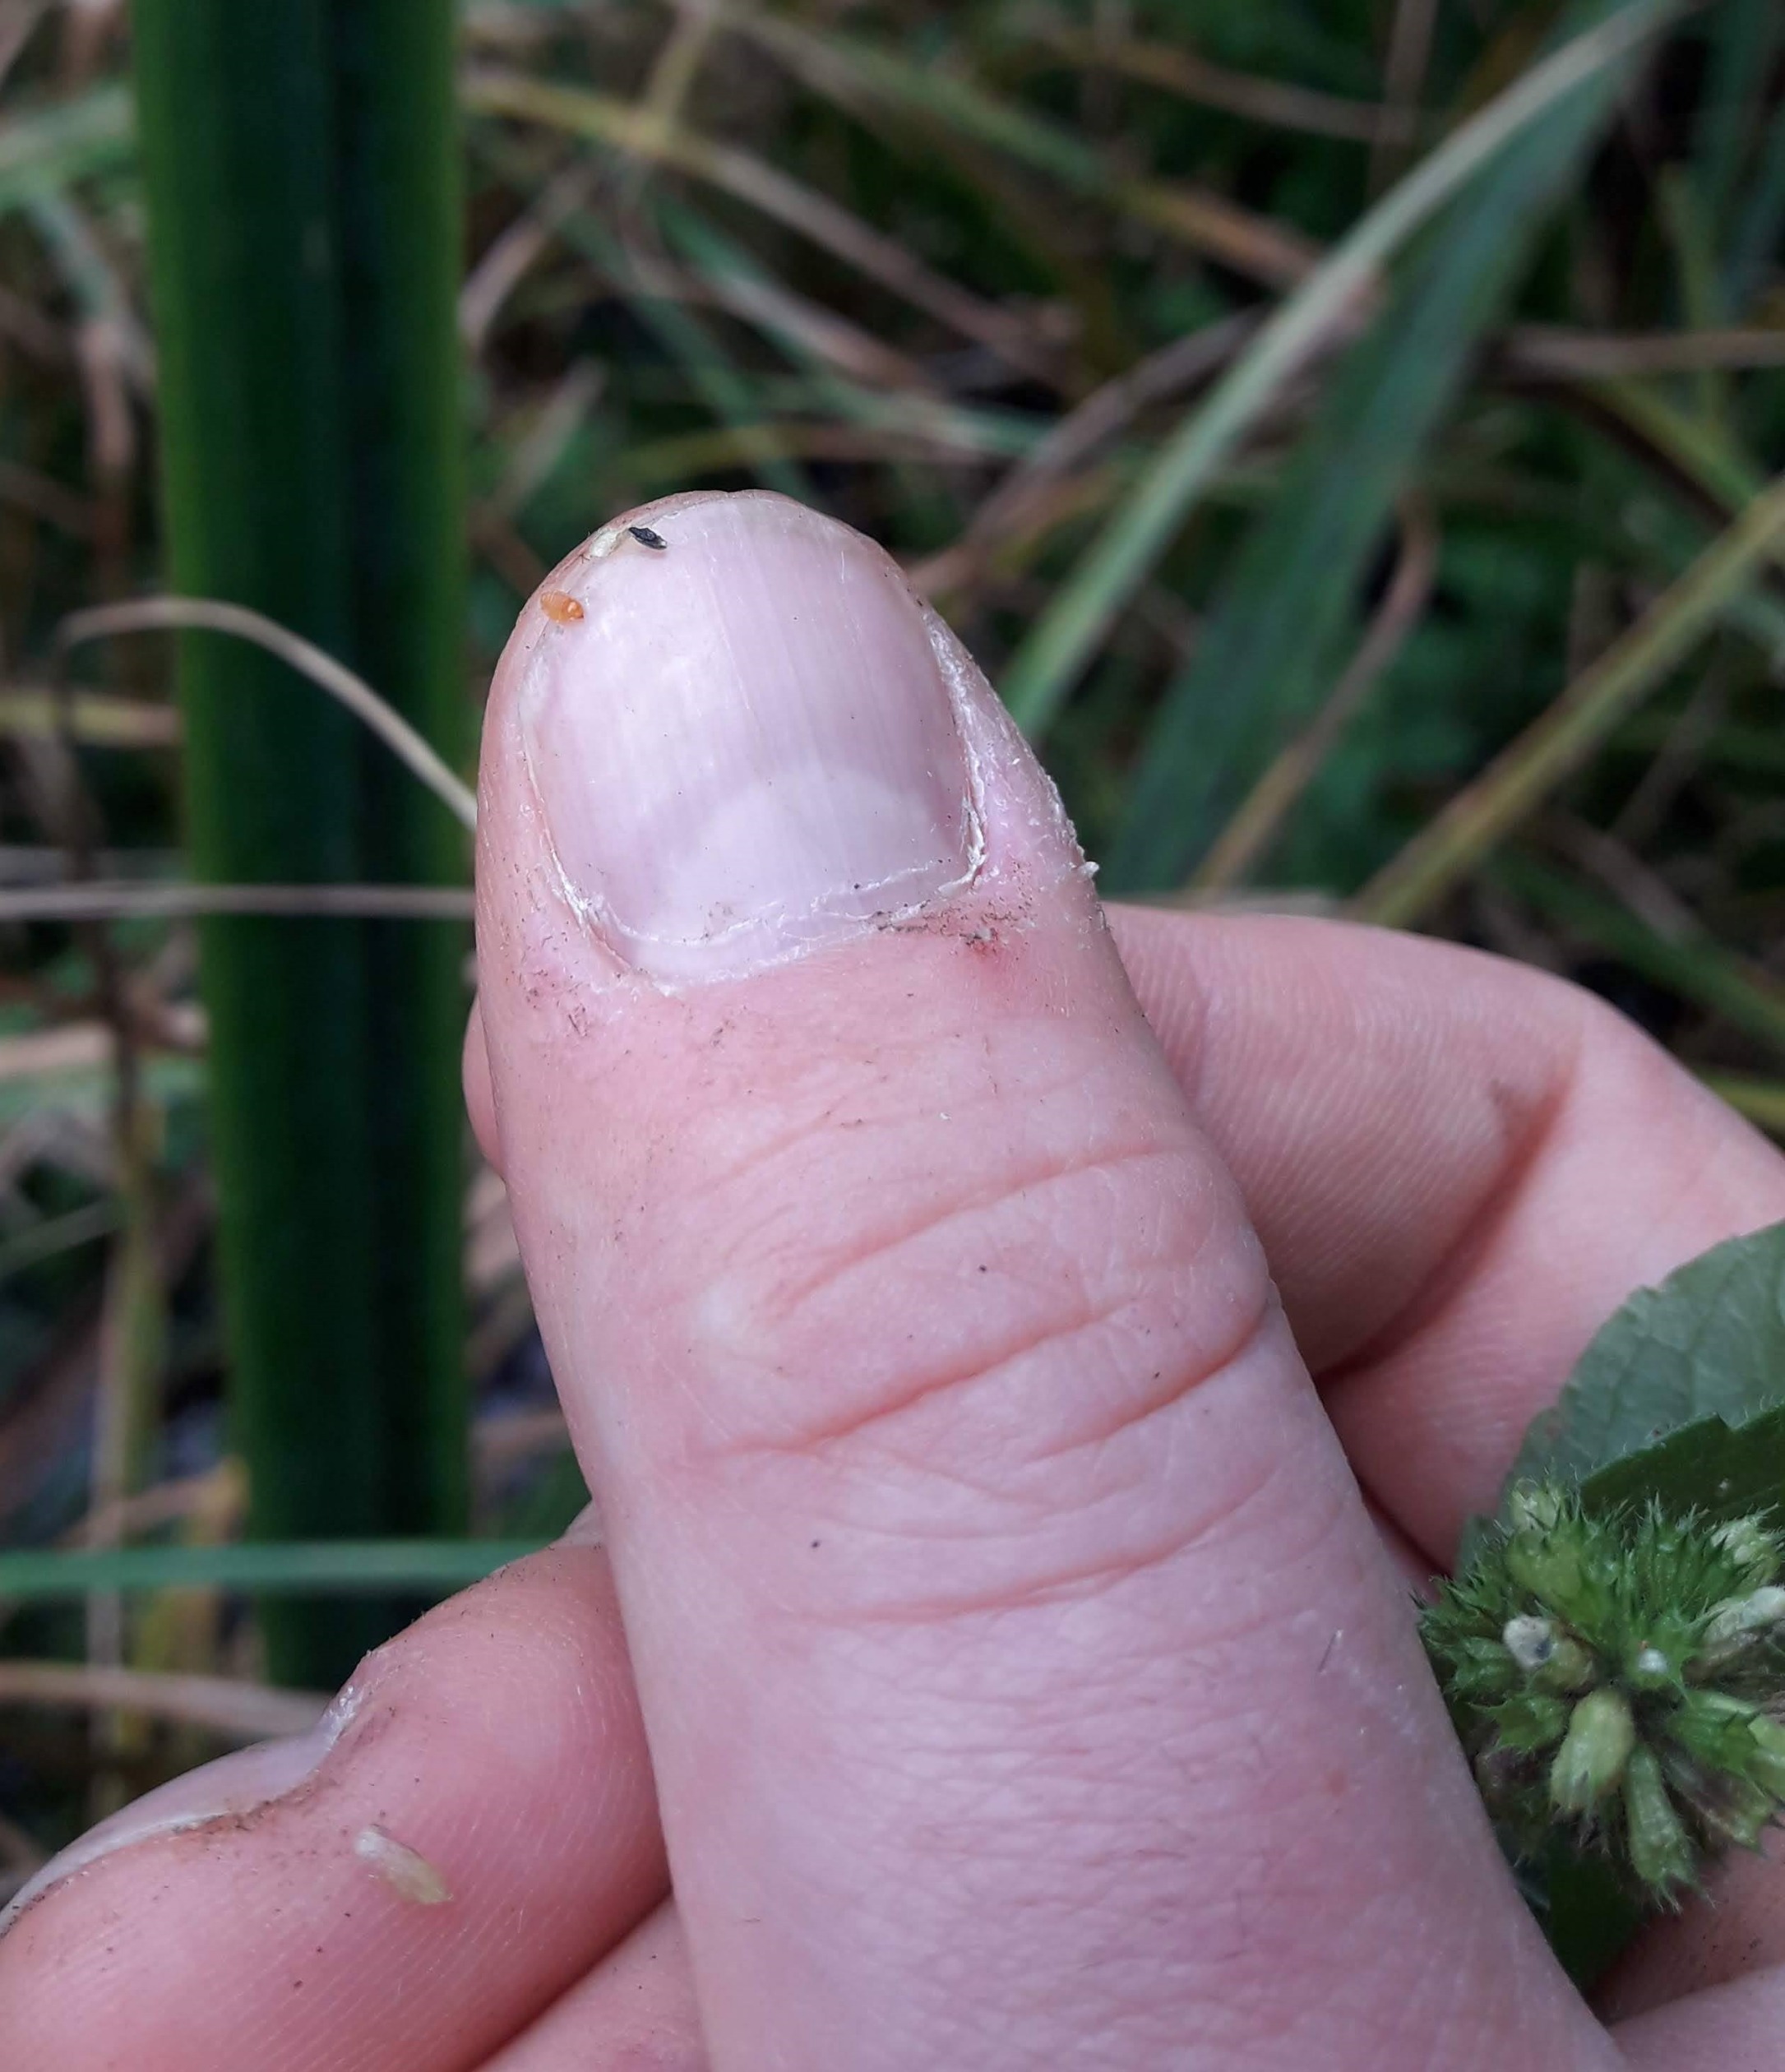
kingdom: Animalia
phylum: Arthropoda
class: Insecta
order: Diptera
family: Cecidomyiidae
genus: Asphondylia
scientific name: Asphondylia menthae
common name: Myntegalmyg
